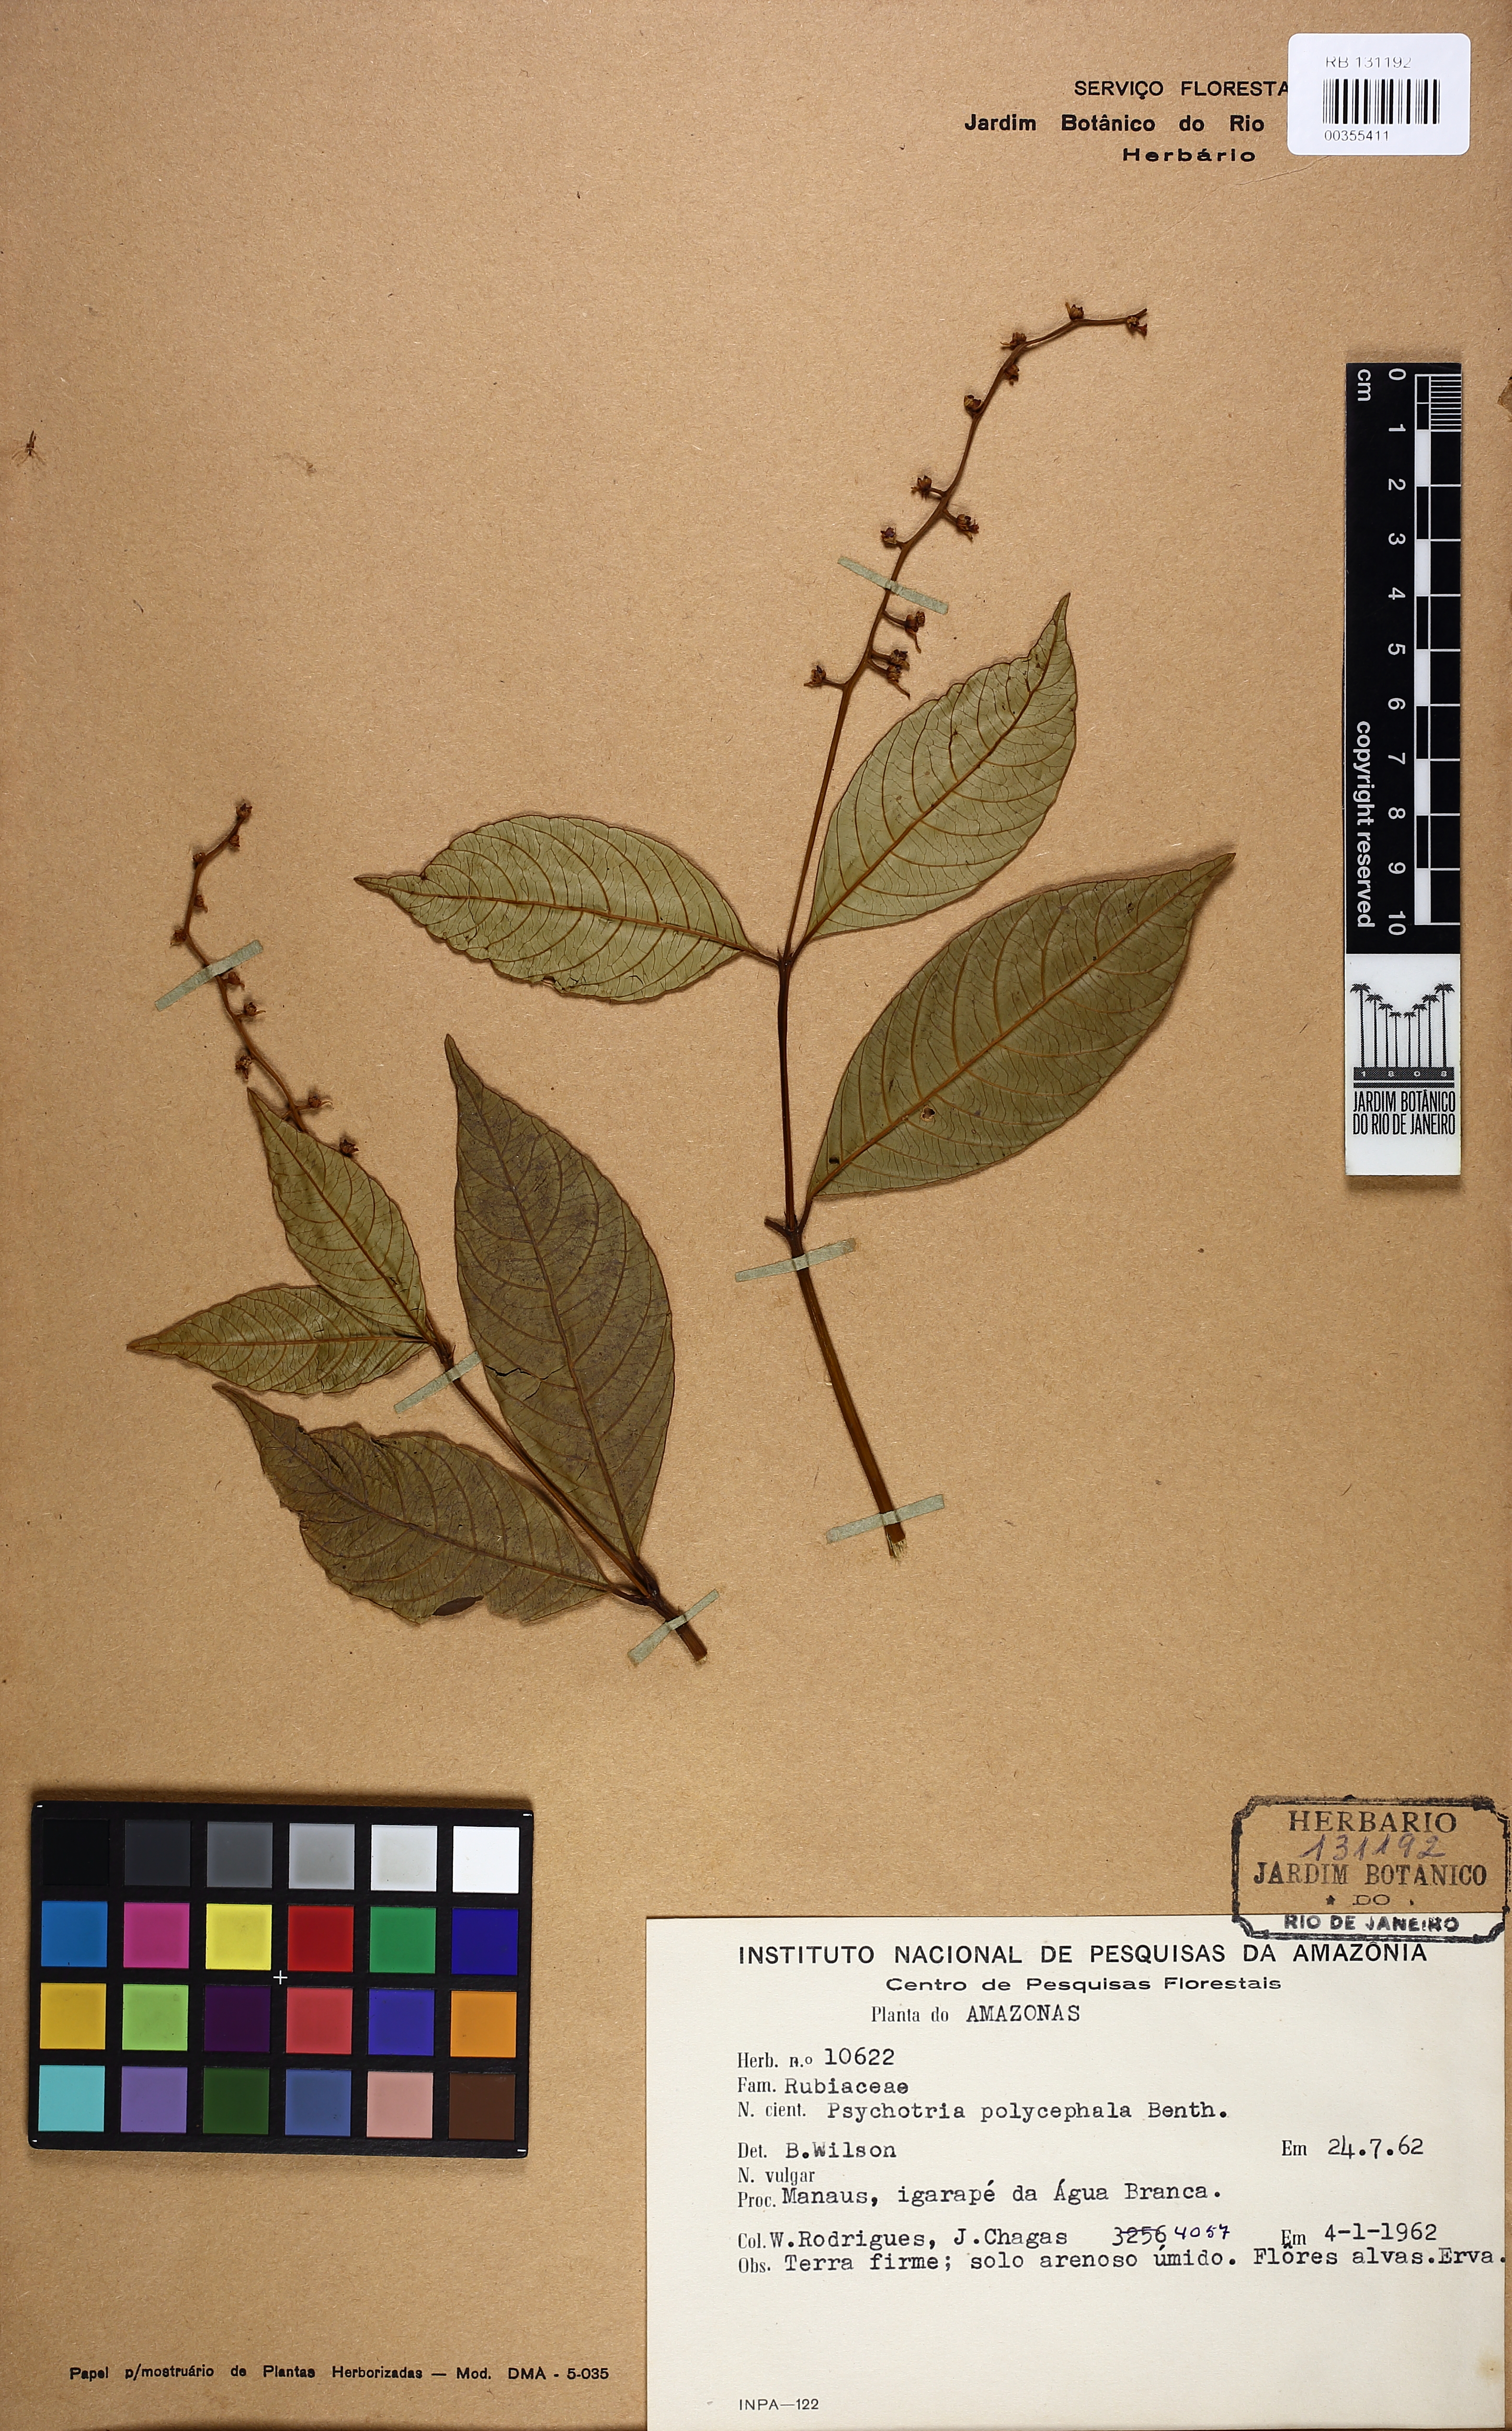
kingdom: Plantae
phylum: Tracheophyta
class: Magnoliopsida
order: Gentianales
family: Rubiaceae
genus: Palicourea
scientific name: Palicourea polycephala
